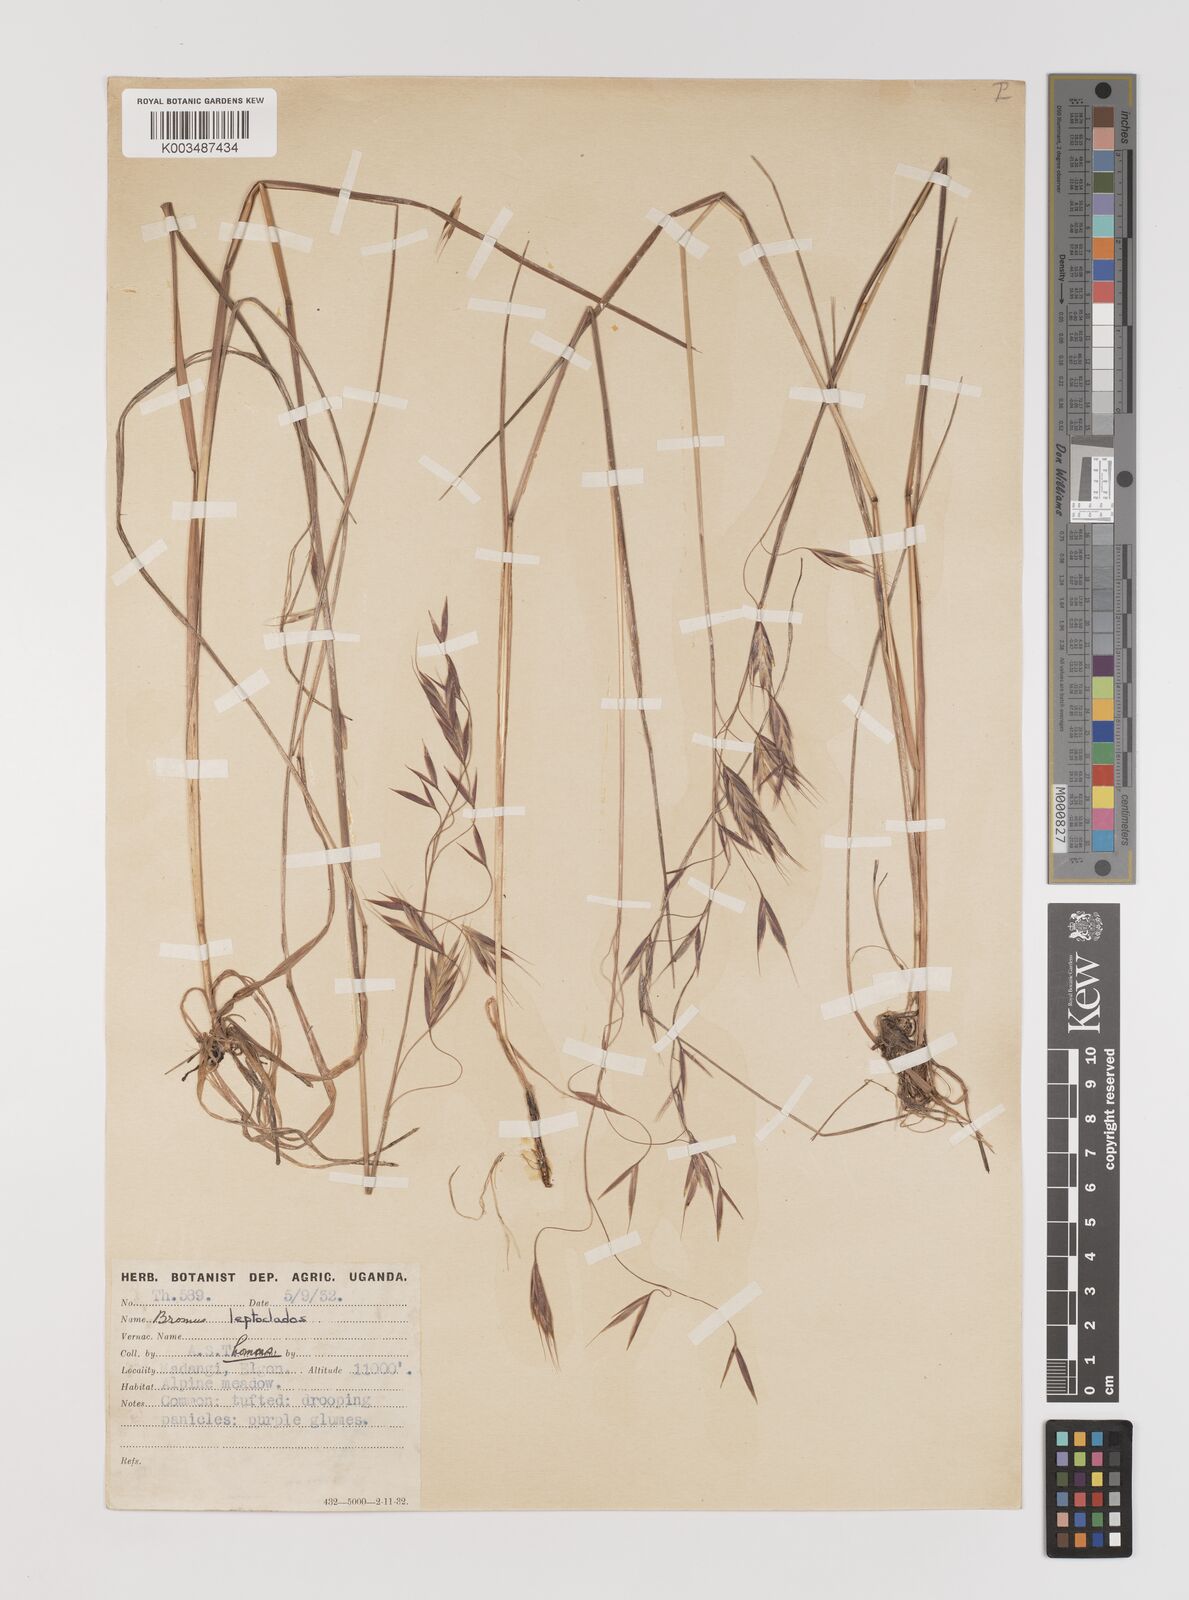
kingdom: Plantae
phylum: Tracheophyta
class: Liliopsida
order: Poales
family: Poaceae
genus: Bromus
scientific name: Bromus leptoclados
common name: Mountain bromegrass
